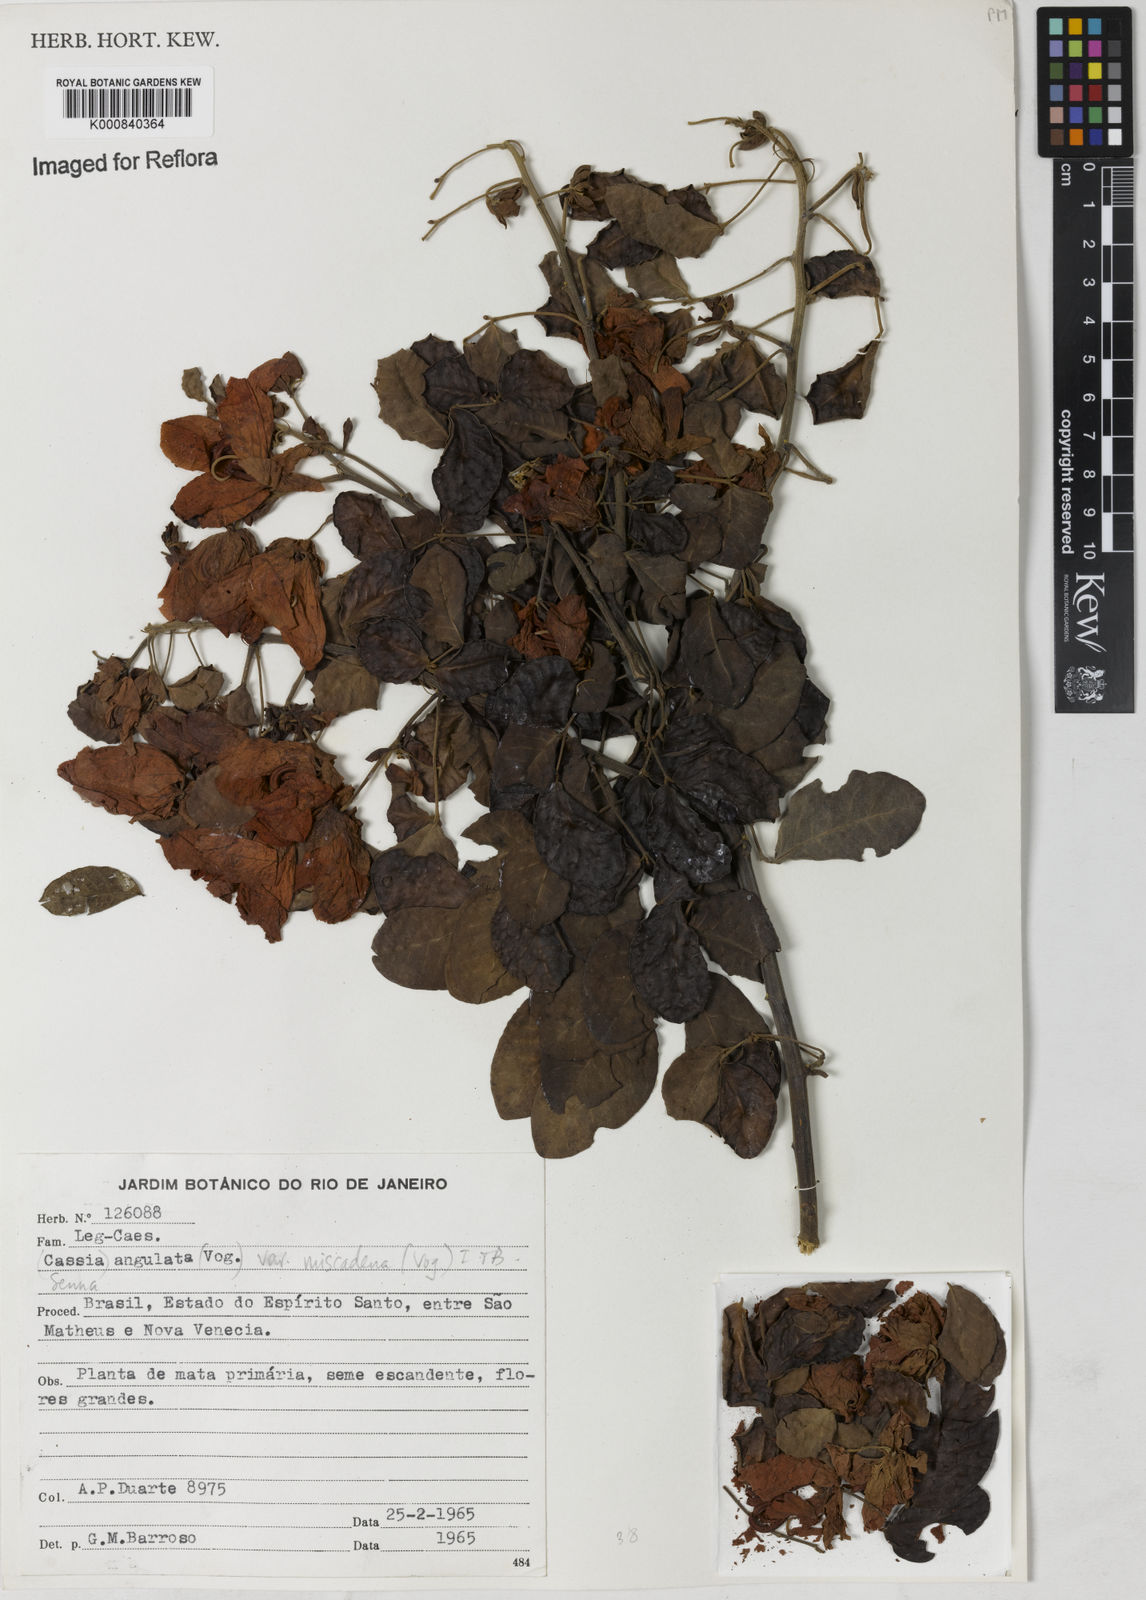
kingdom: Plantae
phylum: Tracheophyta
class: Magnoliopsida
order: Fabales
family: Fabaceae
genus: Senna
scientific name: Senna angulata
